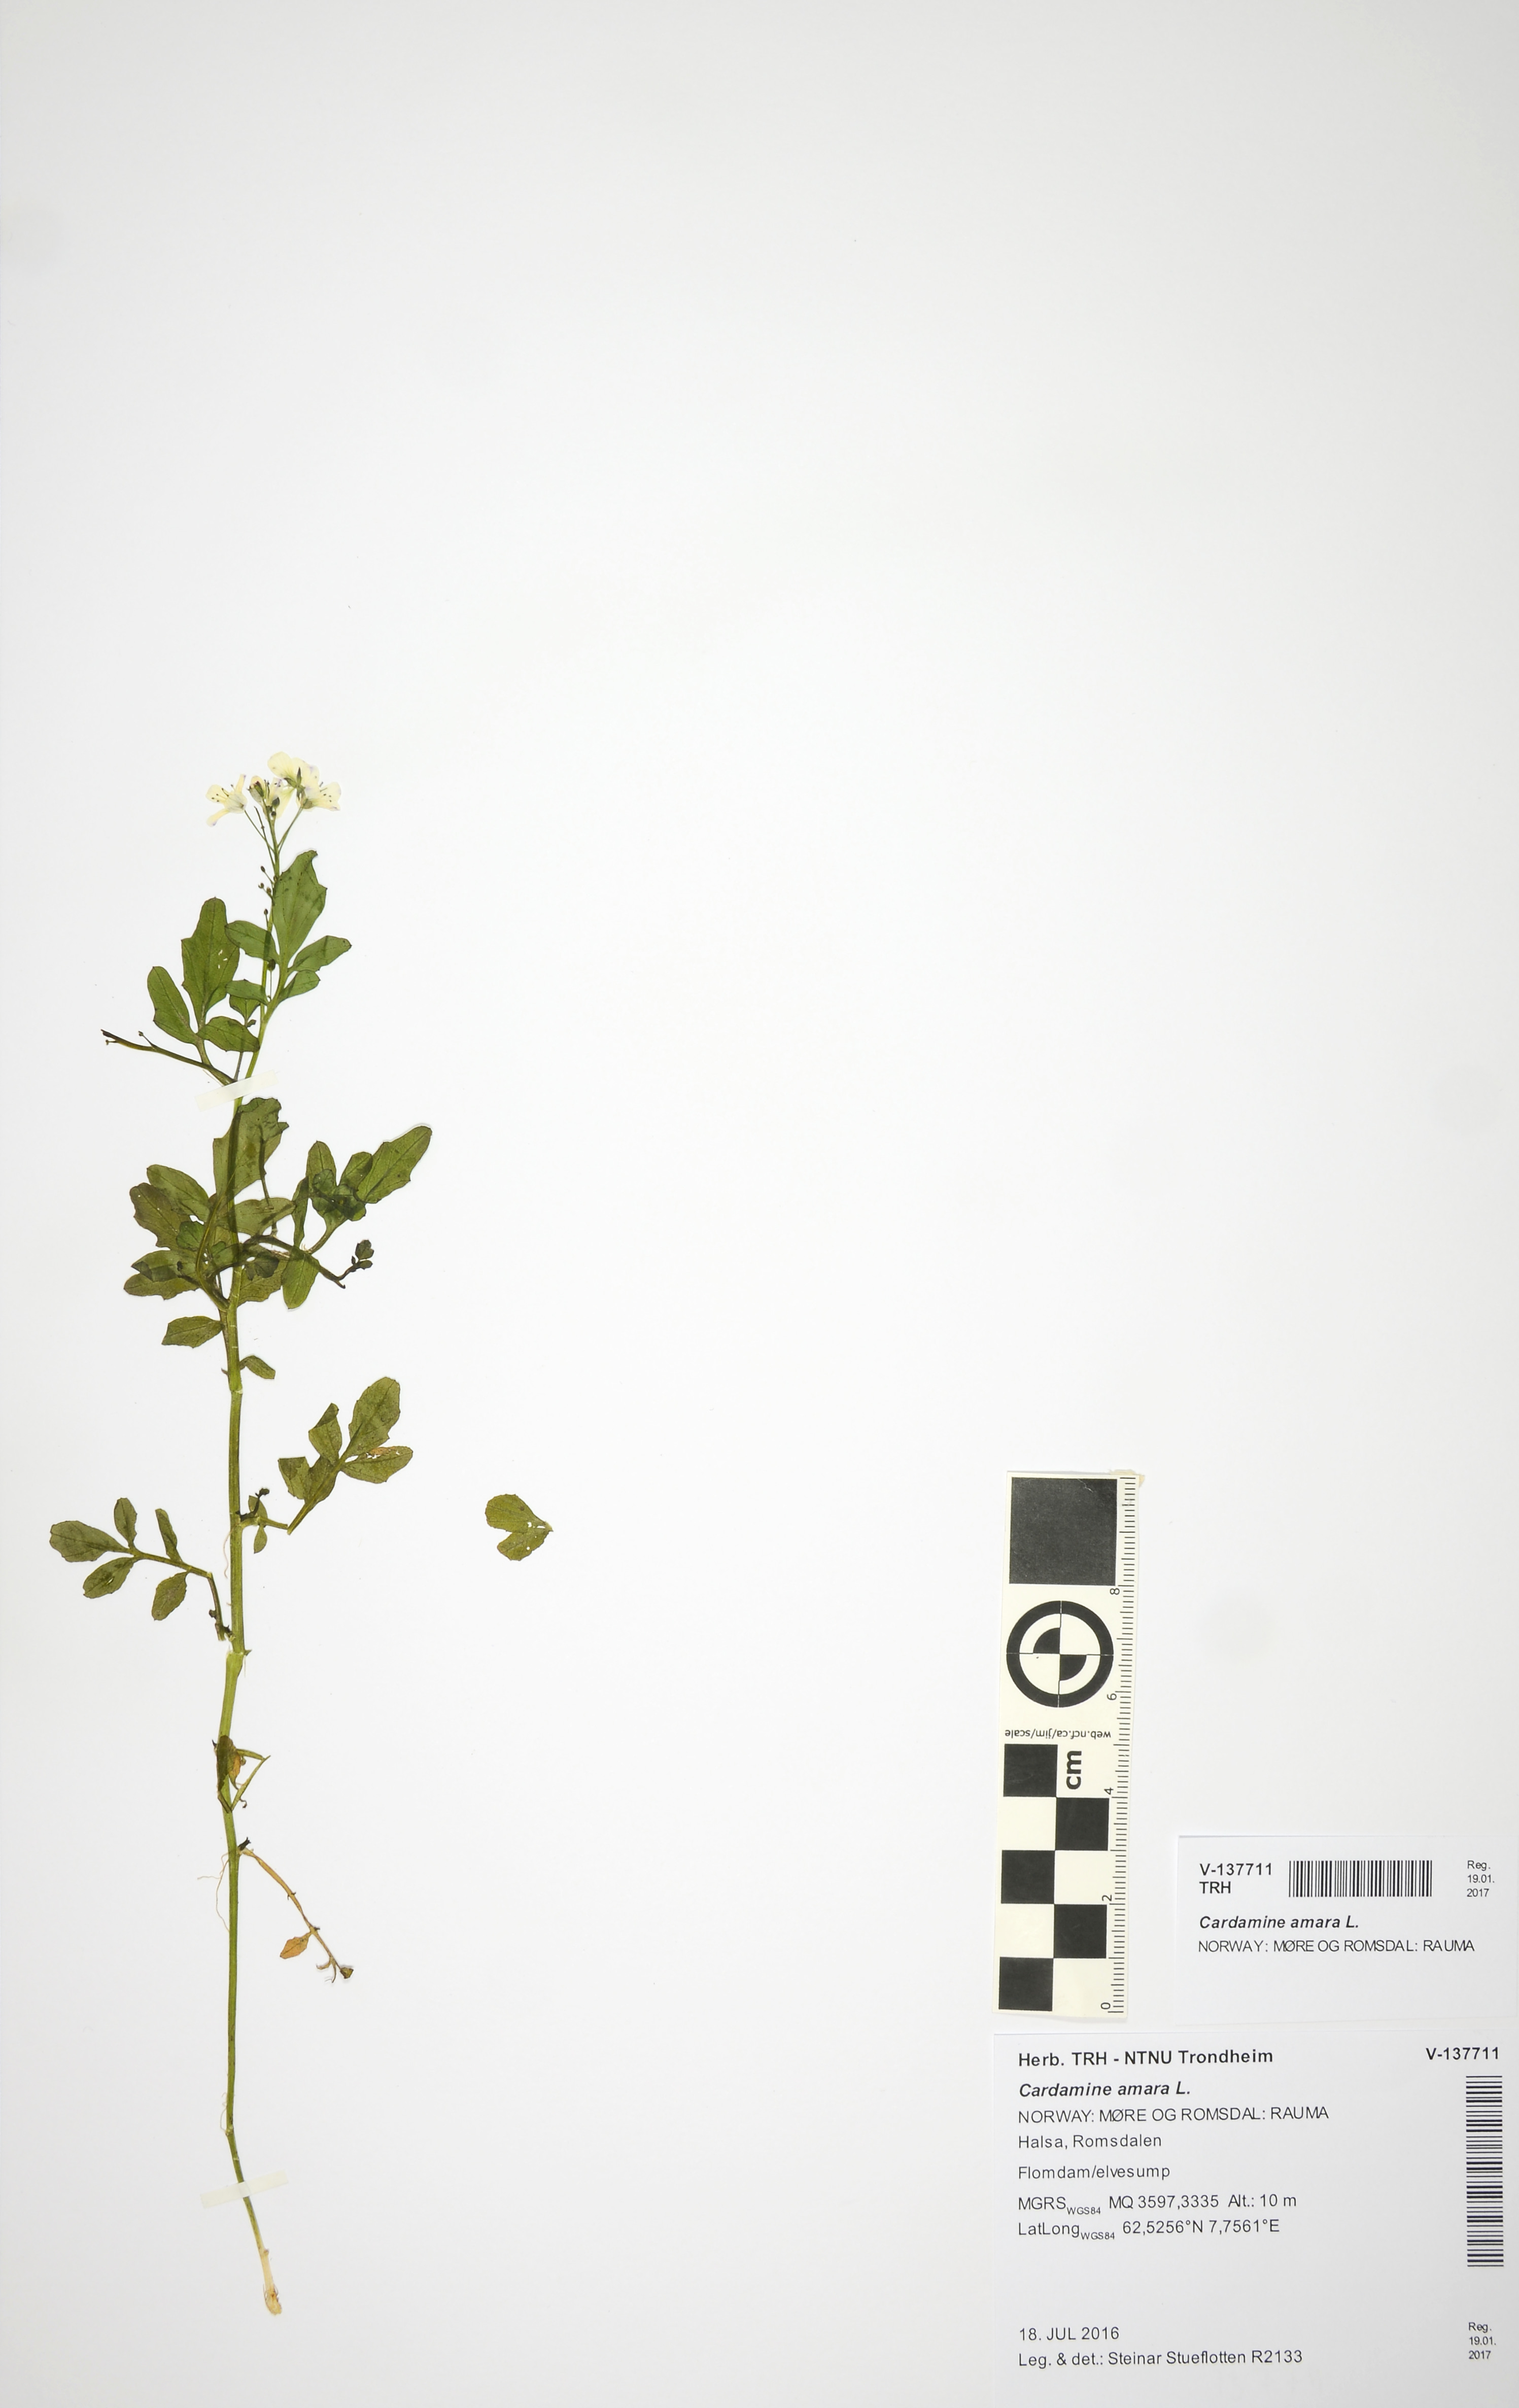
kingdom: Plantae
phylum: Tracheophyta
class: Magnoliopsida
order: Brassicales
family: Brassicaceae
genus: Cardamine
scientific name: Cardamine amara
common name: Large bitter-cress
